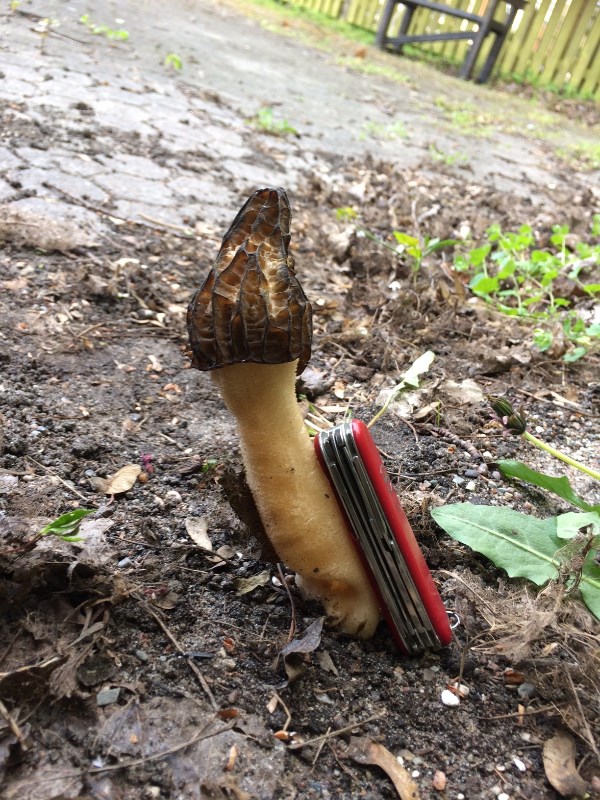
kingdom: Fungi
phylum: Ascomycota
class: Pezizomycetes
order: Pezizales
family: Morchellaceae
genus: Morchella
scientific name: Morchella semilibera
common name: hætte-morkel
